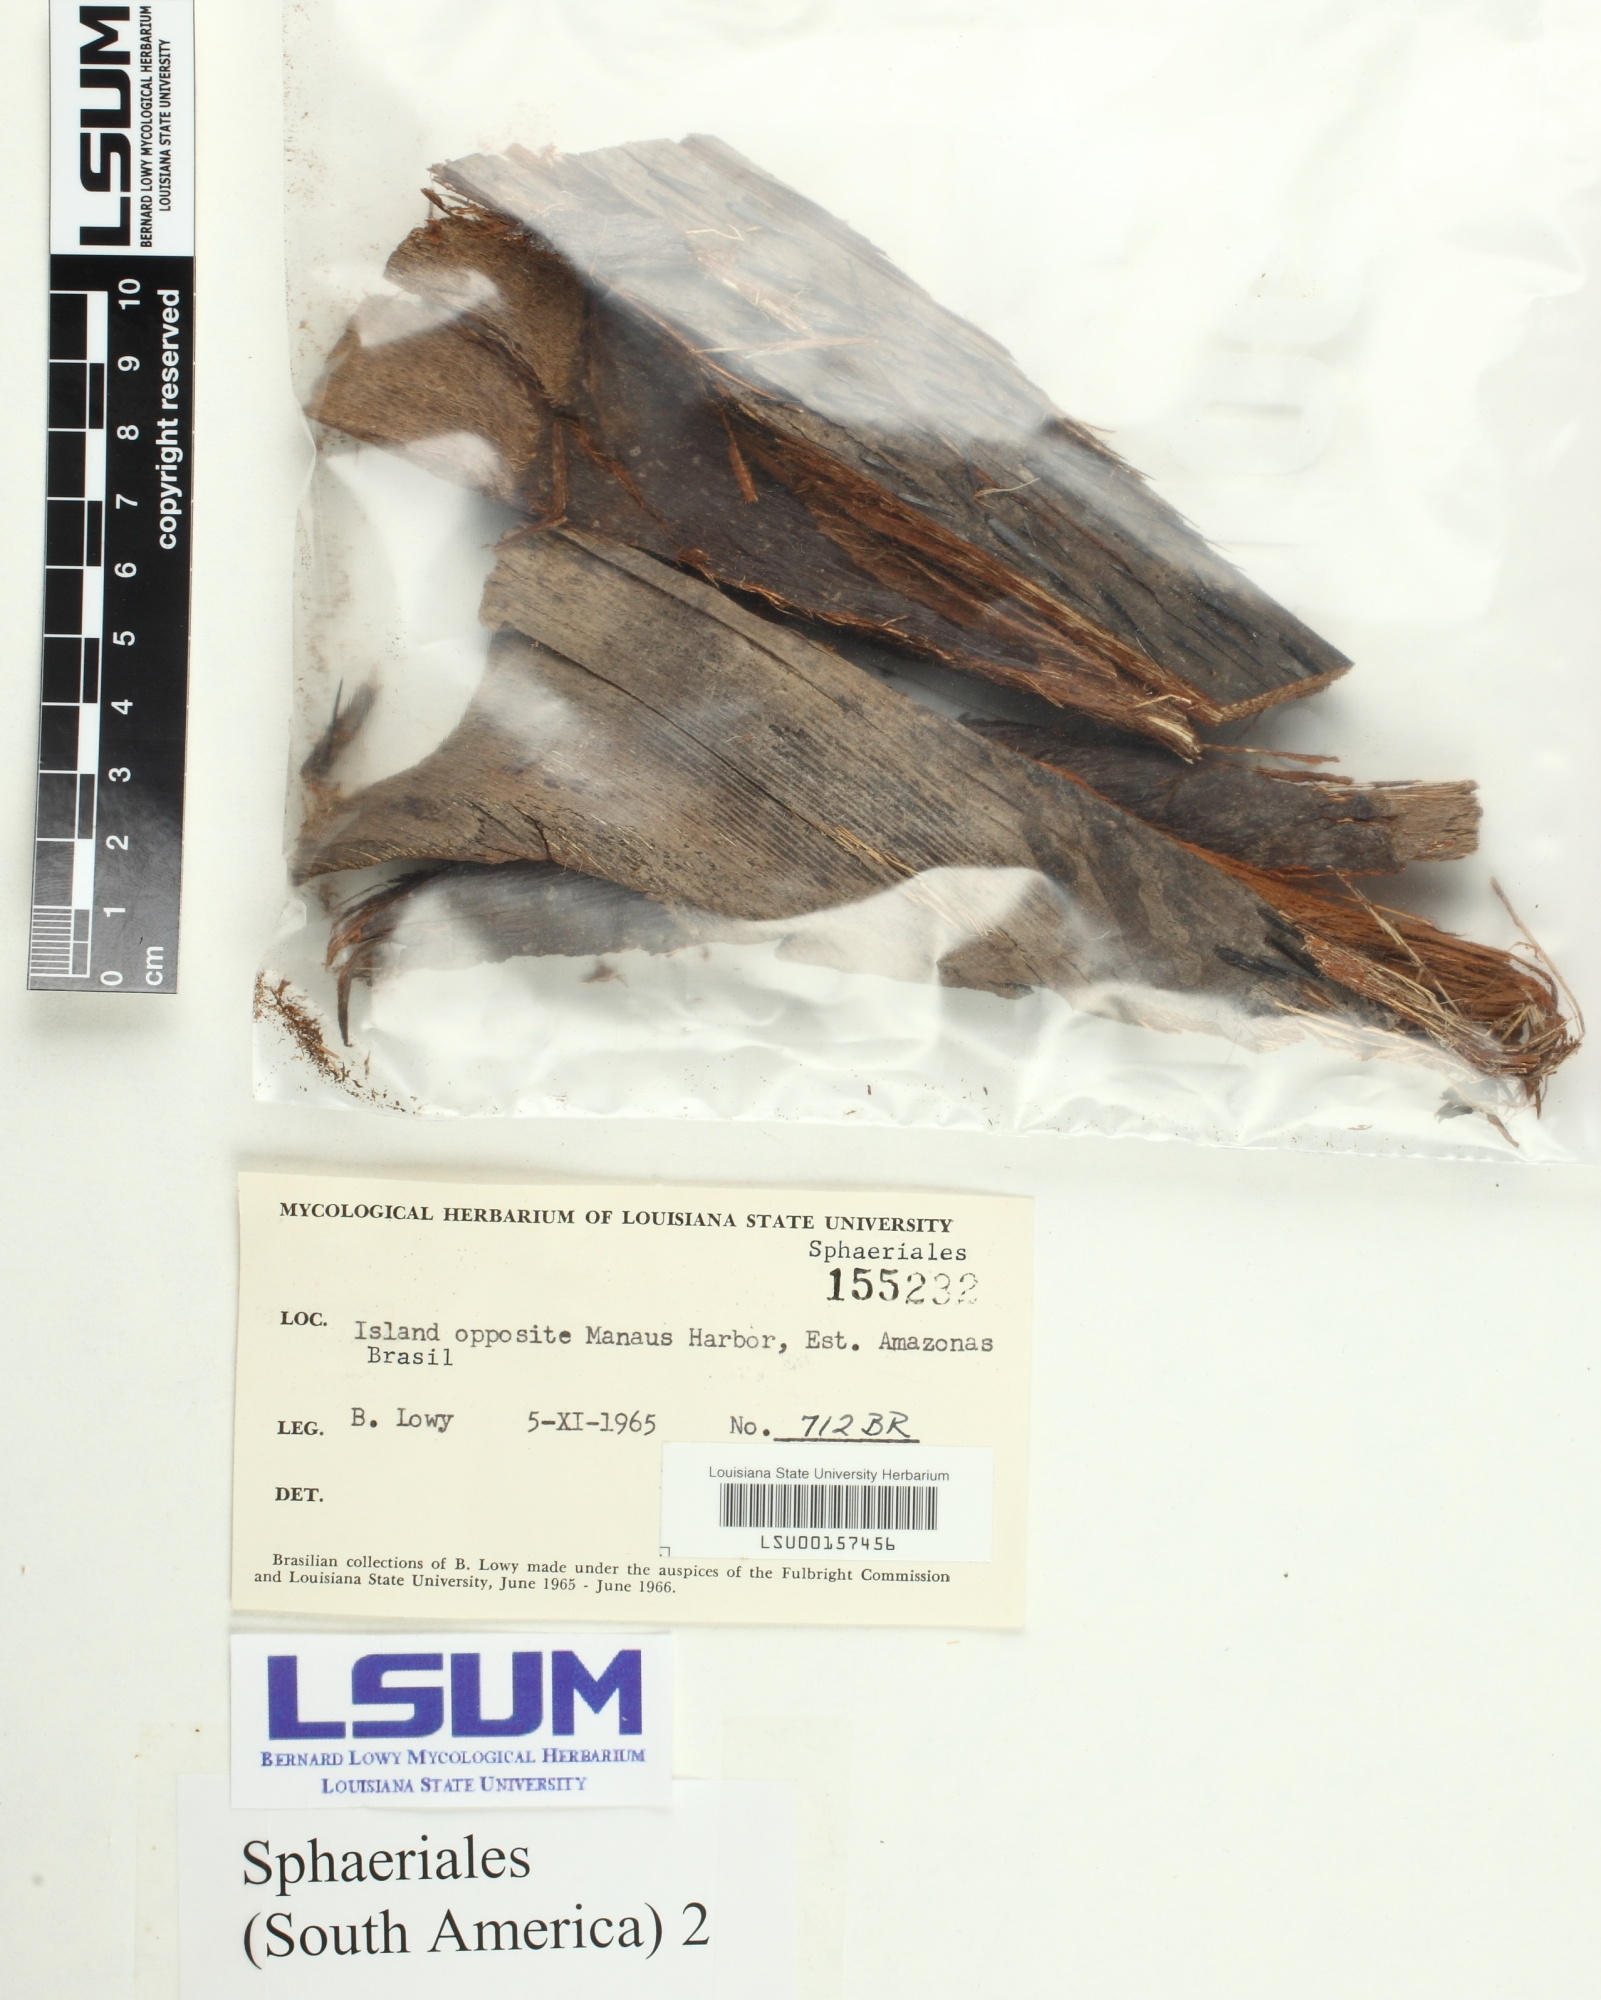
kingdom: Fungi
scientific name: Fungi
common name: Fungi
